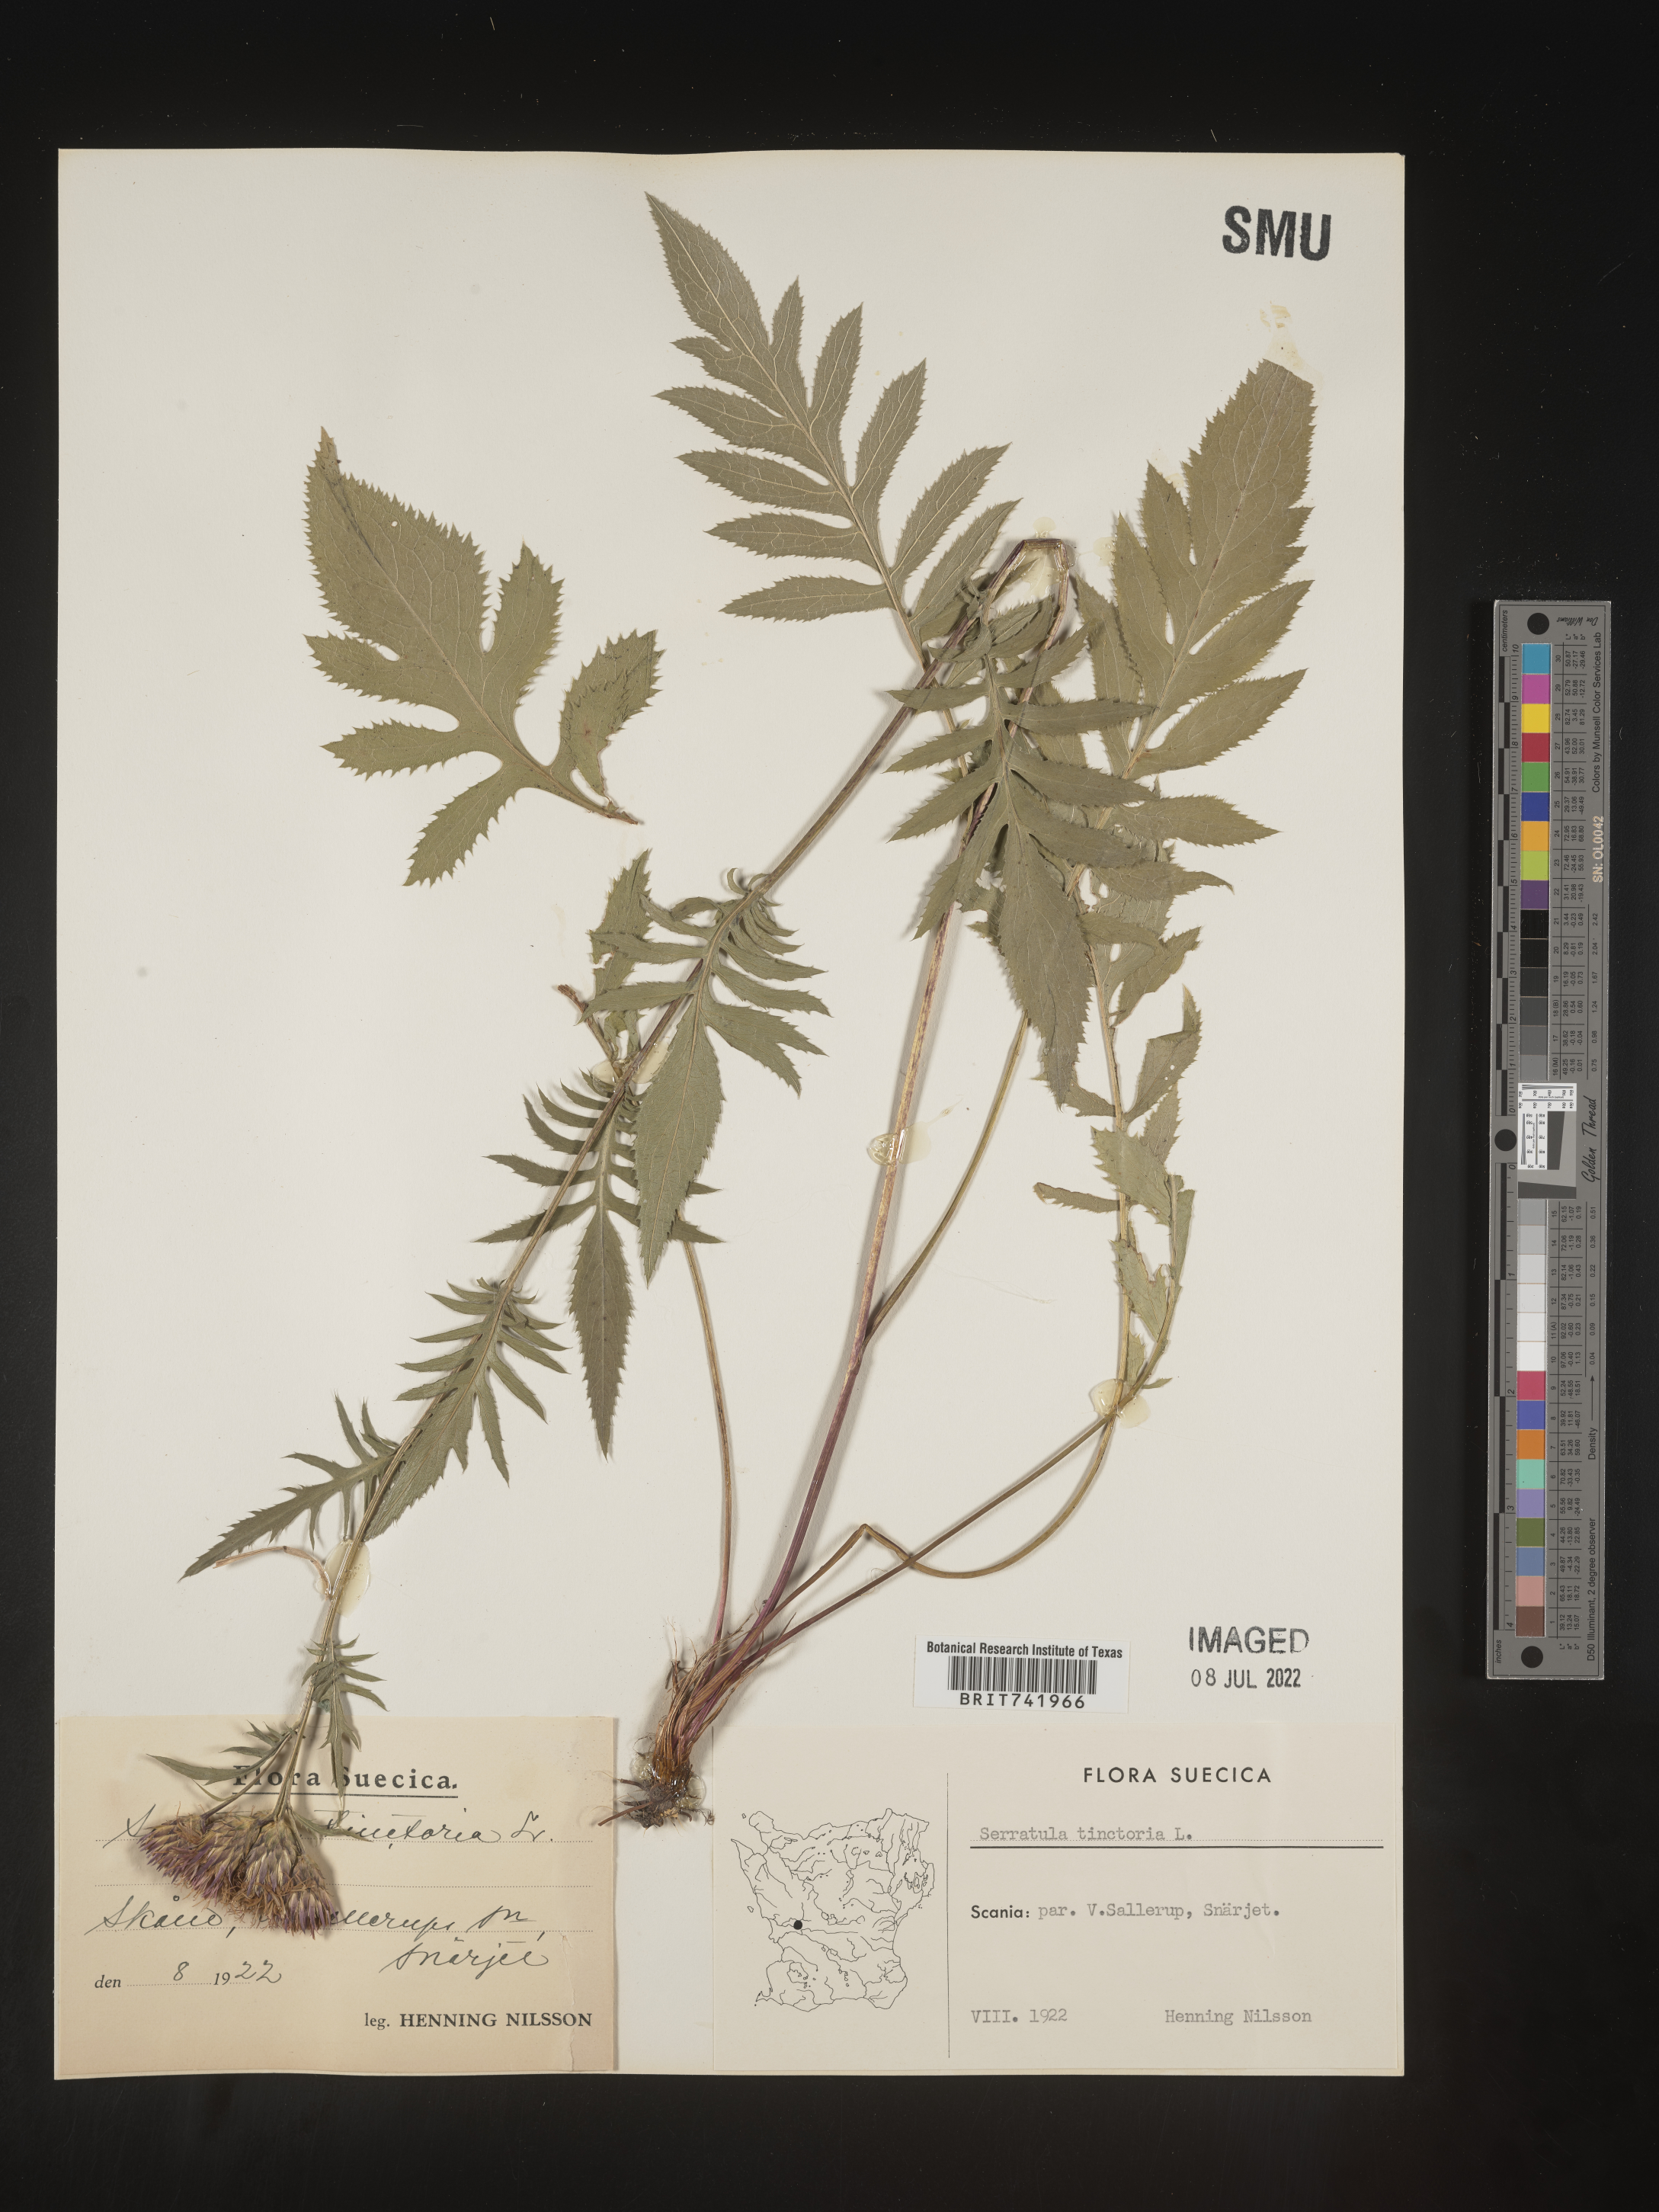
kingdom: Plantae
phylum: Tracheophyta
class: Magnoliopsida
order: Asterales
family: Asteraceae
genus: Serratula
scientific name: Serratula
